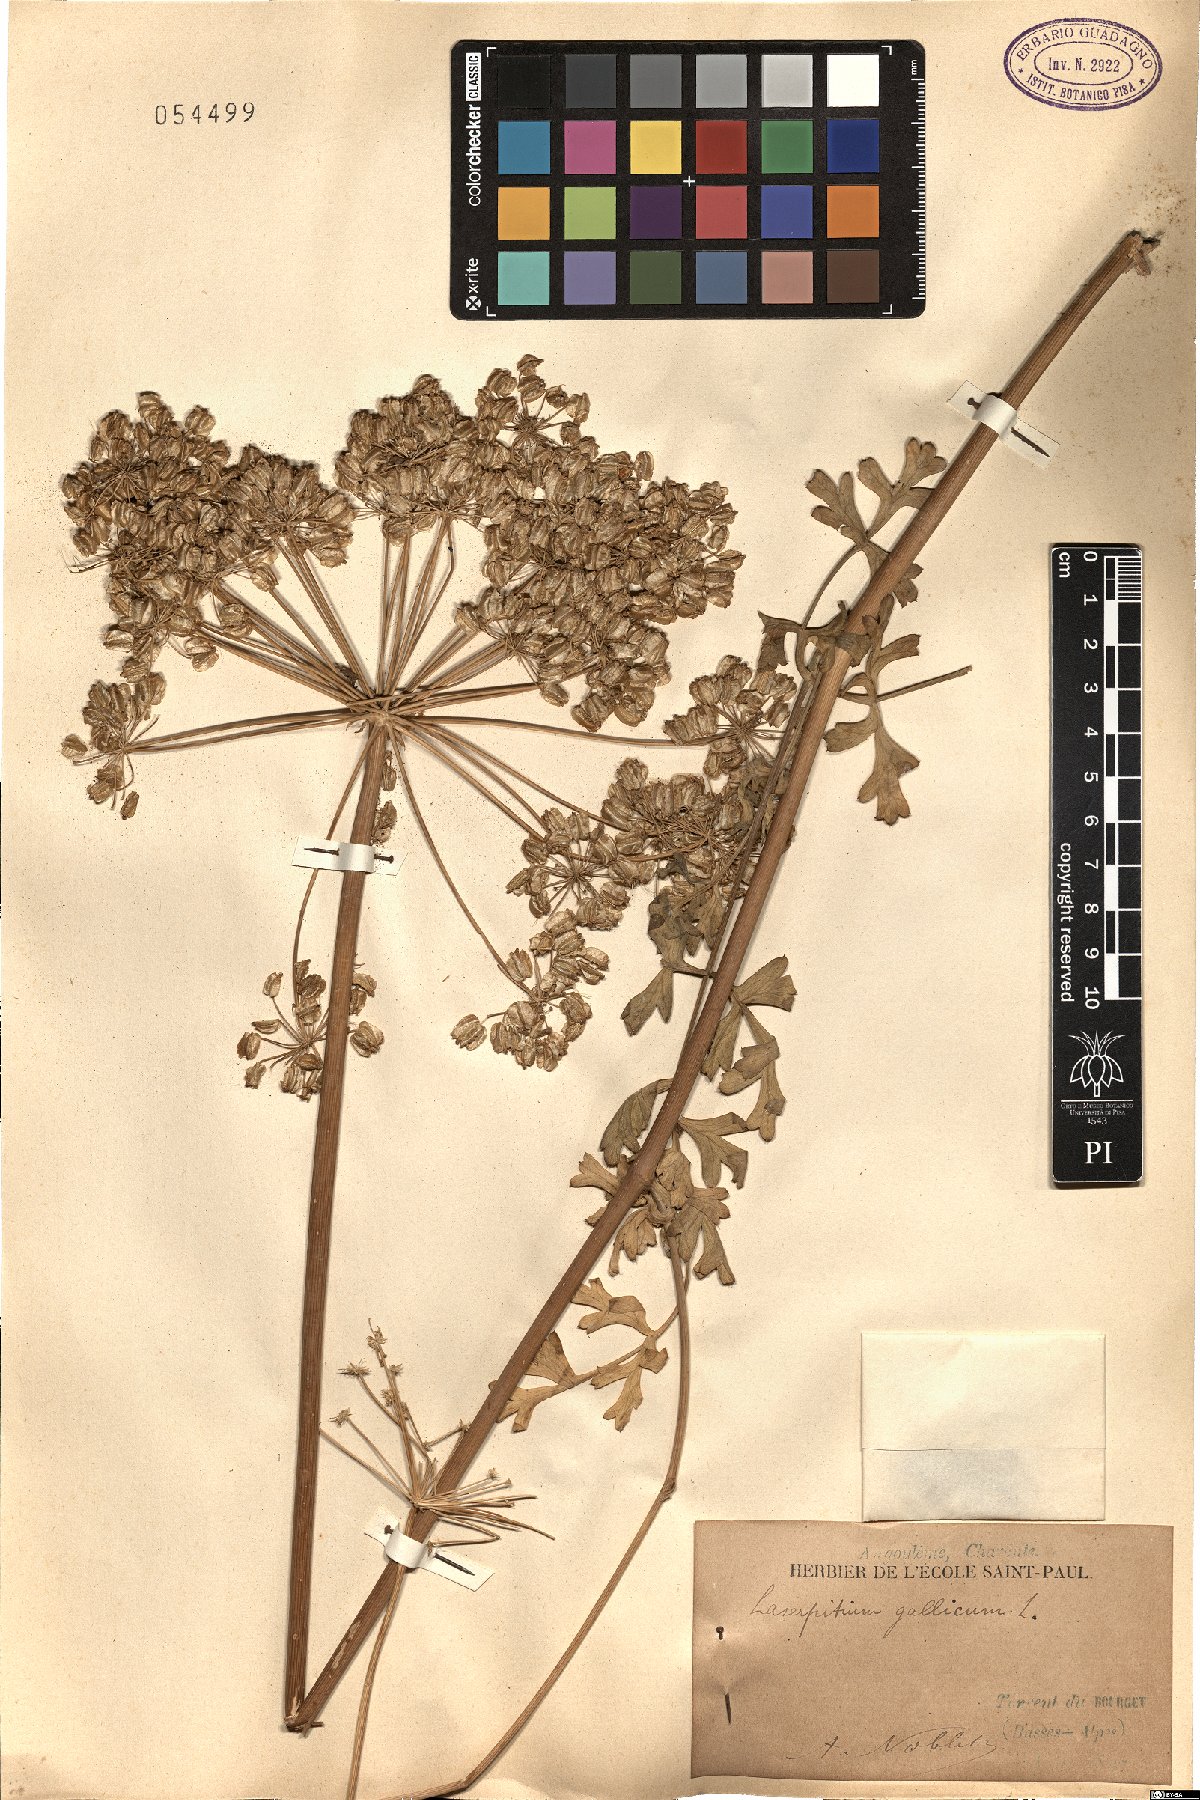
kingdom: Plantae
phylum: Tracheophyta
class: Magnoliopsida
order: Apiales
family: Apiaceae
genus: Laserpitium
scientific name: Laserpitium gallicum
